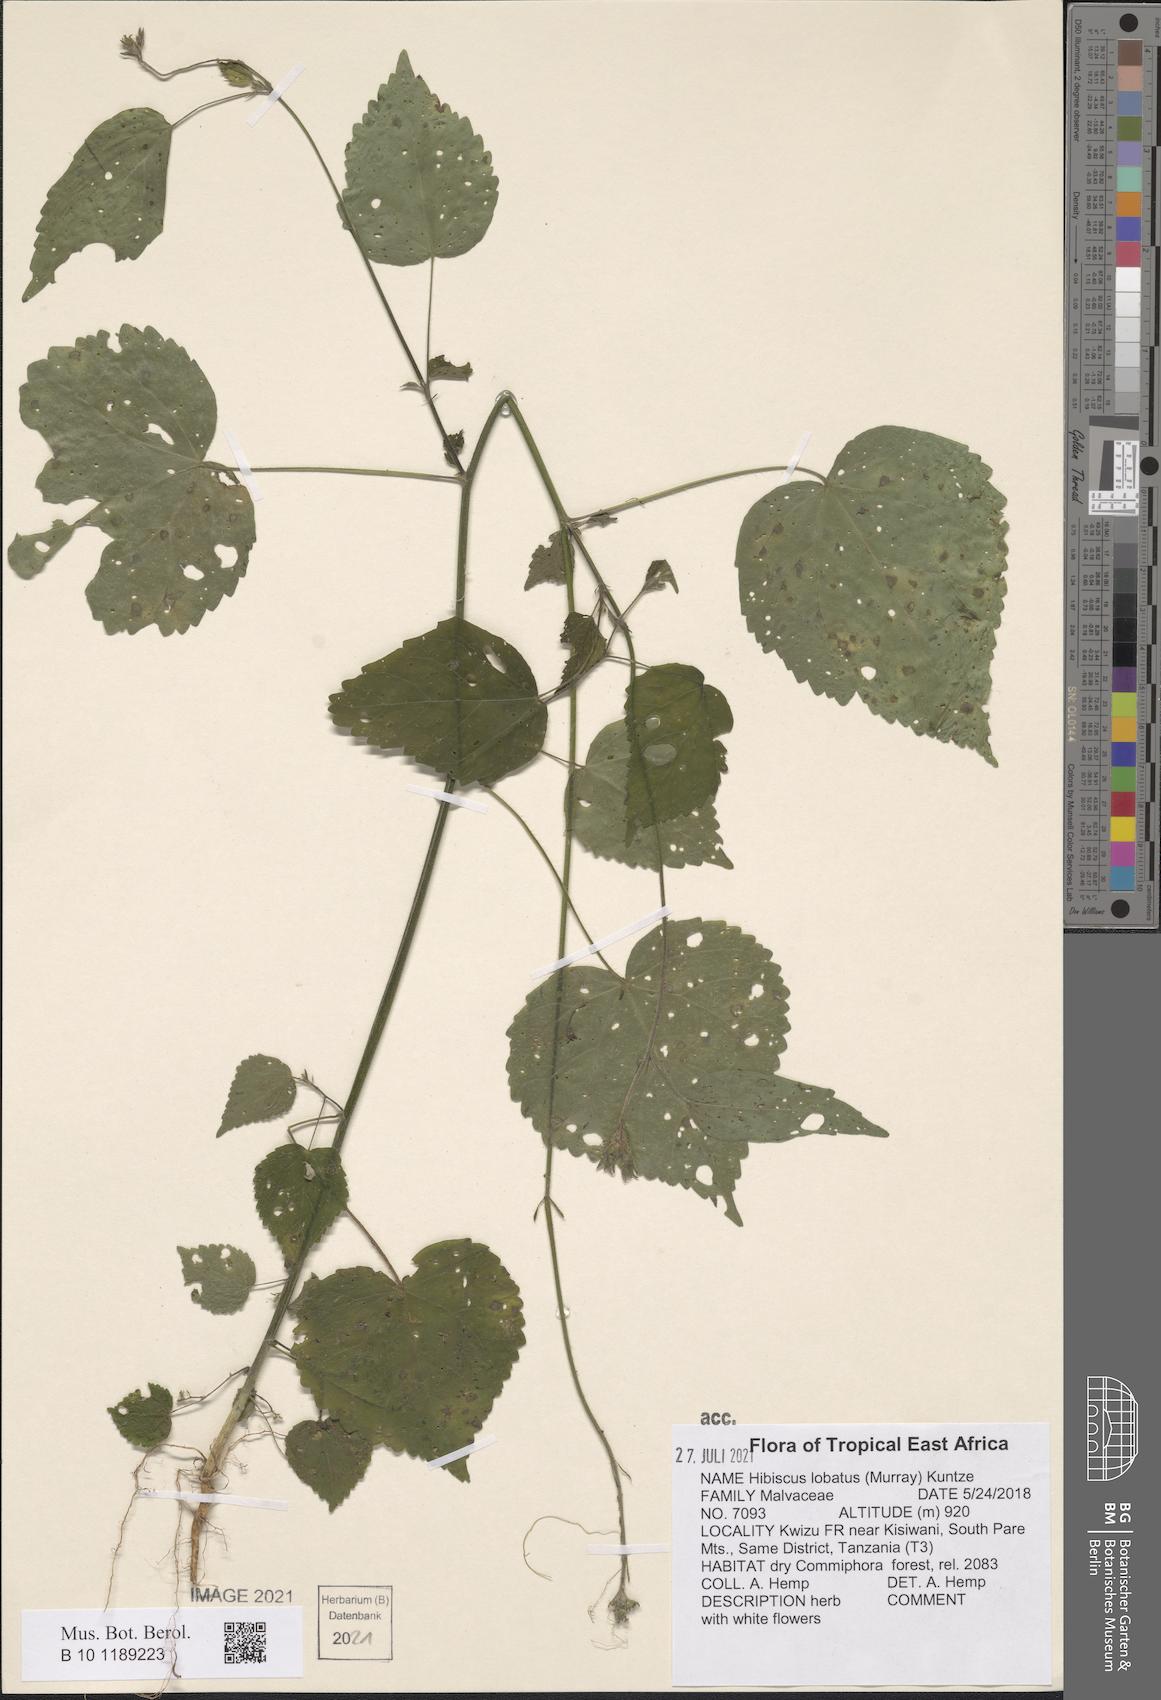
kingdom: Plantae
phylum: Tracheophyta
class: Magnoliopsida
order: Malvales
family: Malvaceae
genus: Hibiscus
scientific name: Hibiscus lobatus
